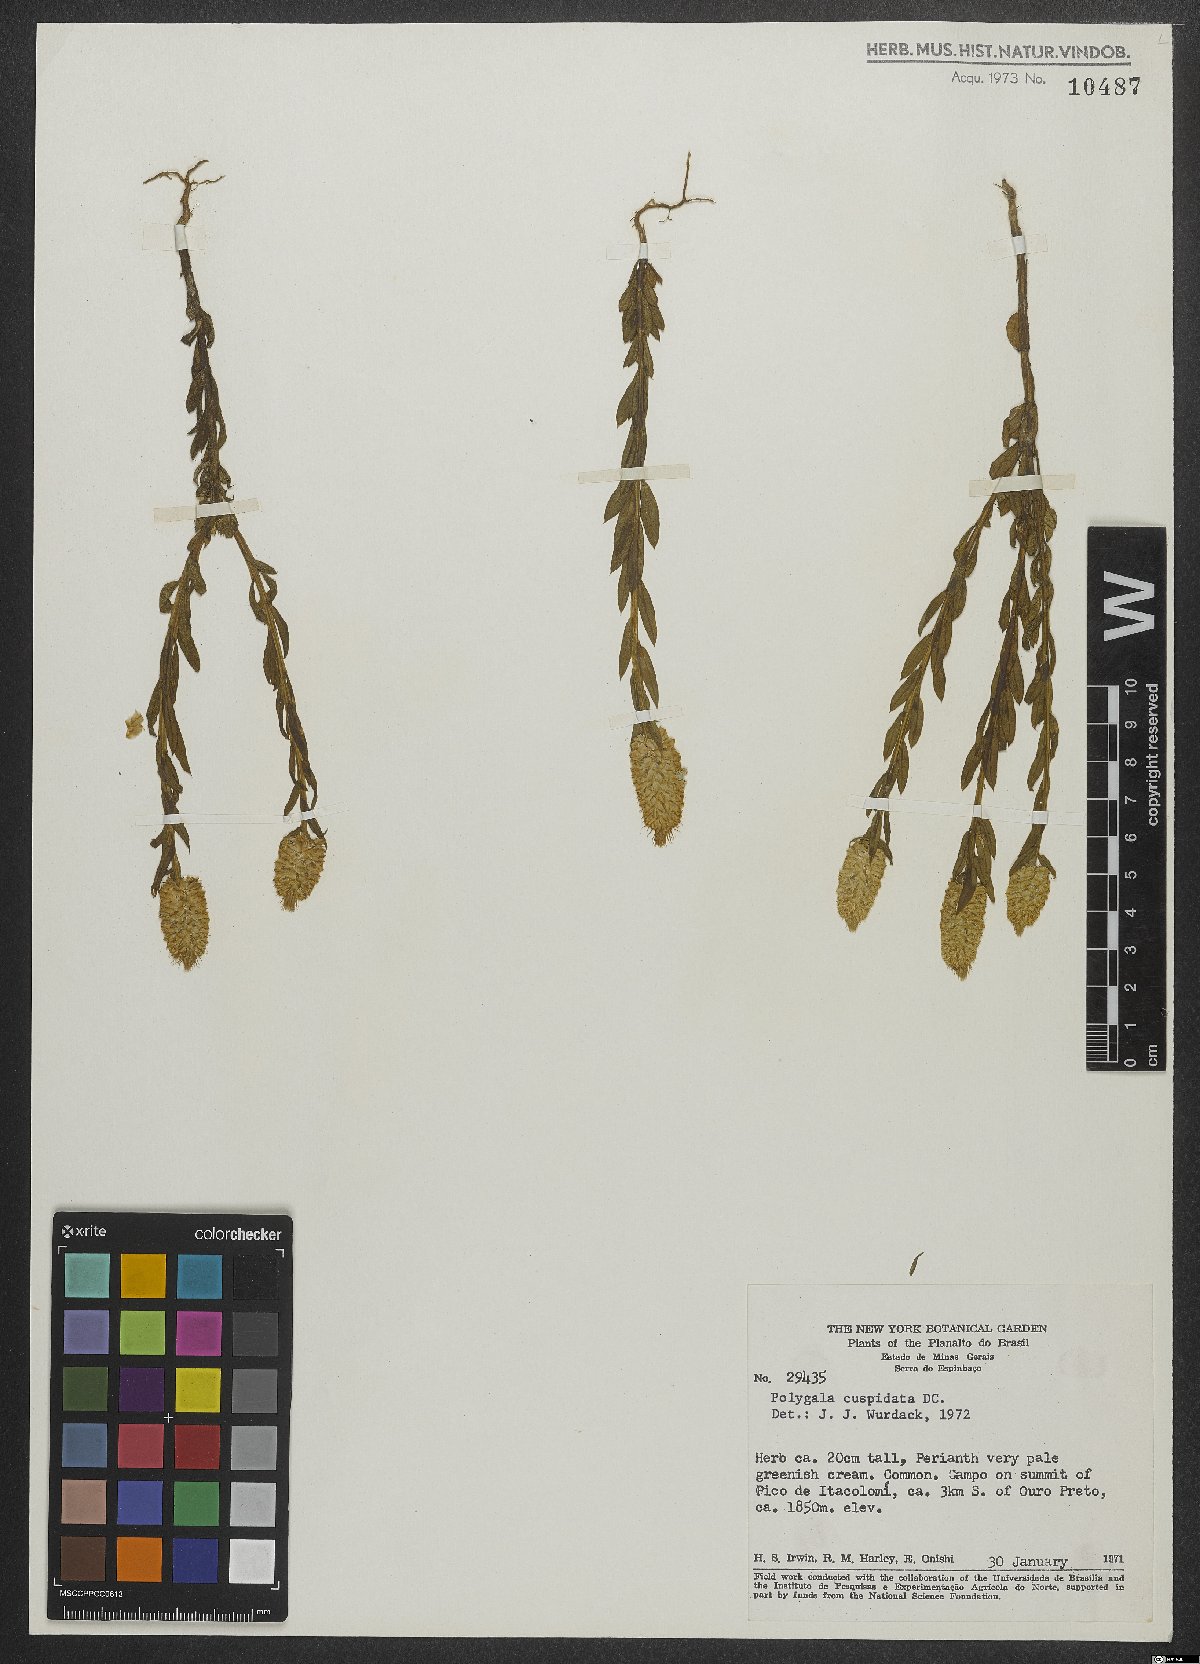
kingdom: Plantae
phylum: Tracheophyta
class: Magnoliopsida
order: Fabales
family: Polygalaceae
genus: Polygala
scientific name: Polygala cuspidata
